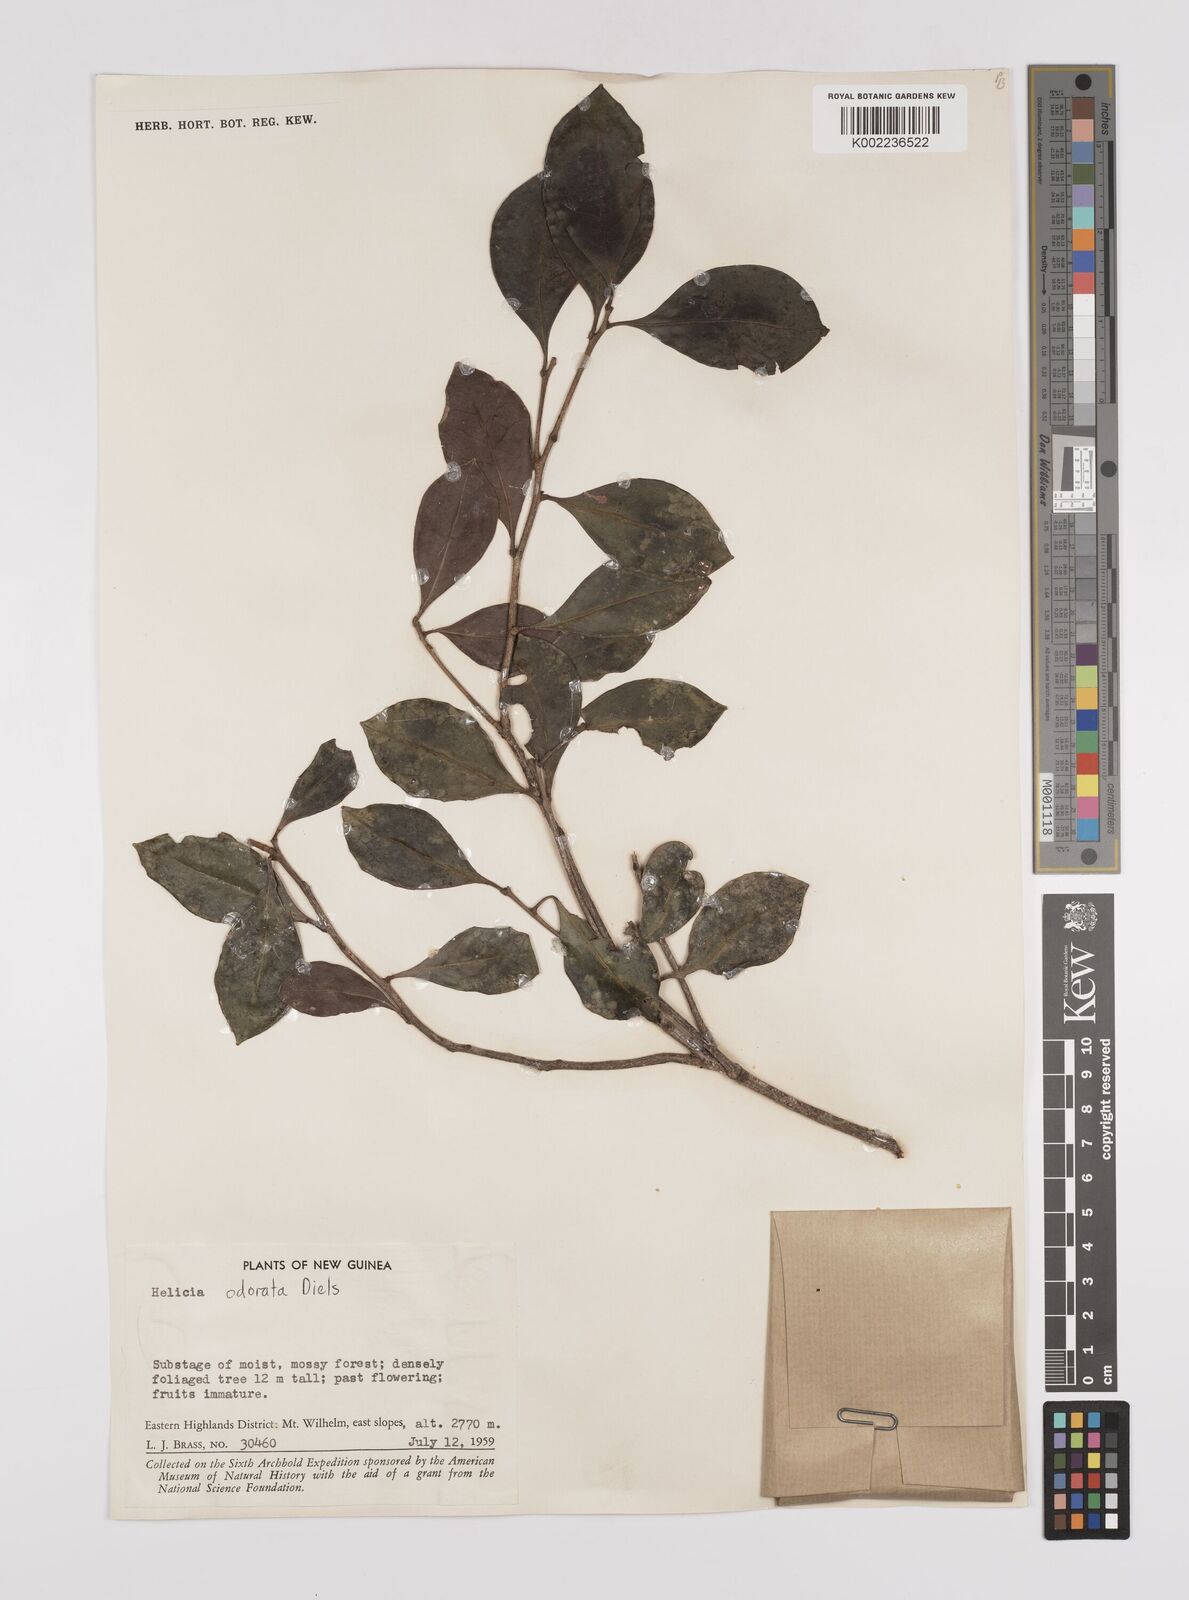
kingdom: Plantae
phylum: Tracheophyta
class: Magnoliopsida
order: Proteales
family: Proteaceae
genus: Helicia
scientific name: Helicia odorata
